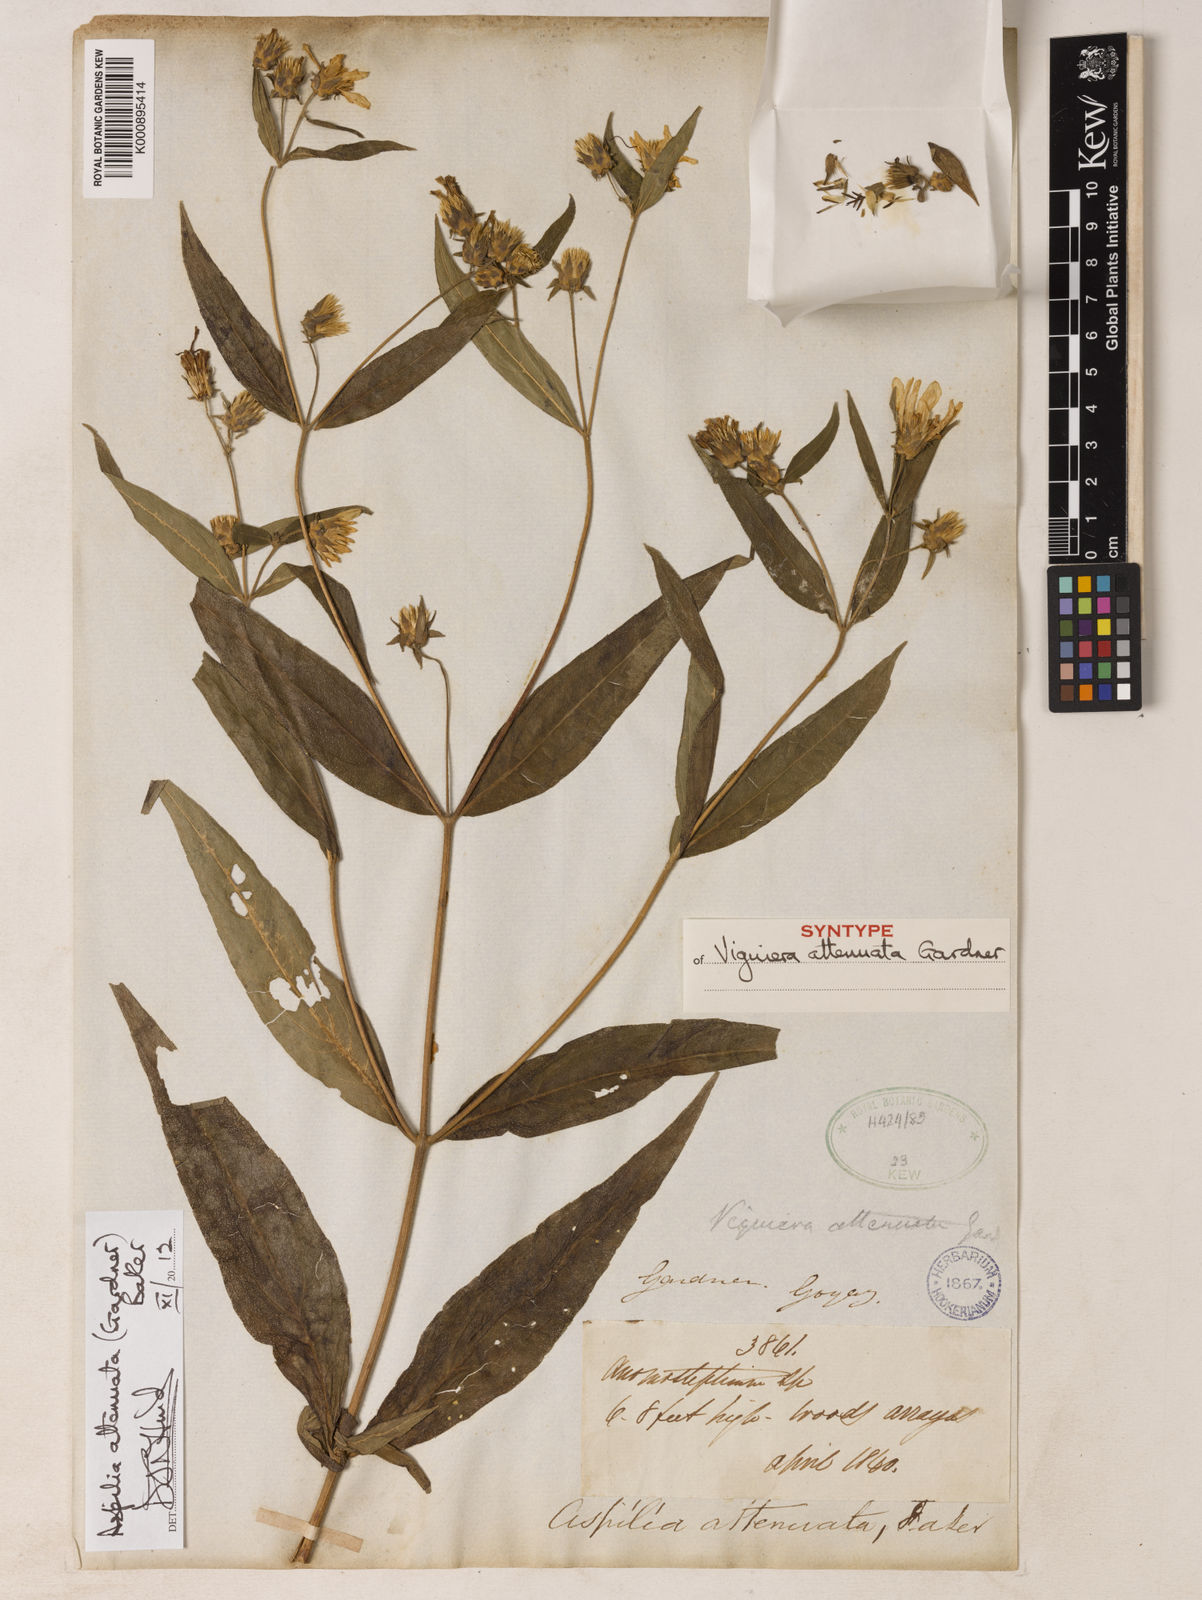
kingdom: Plantae
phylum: Tracheophyta
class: Magnoliopsida
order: Asterales
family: Asteraceae
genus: Wedelia
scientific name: Wedelia attenuata
